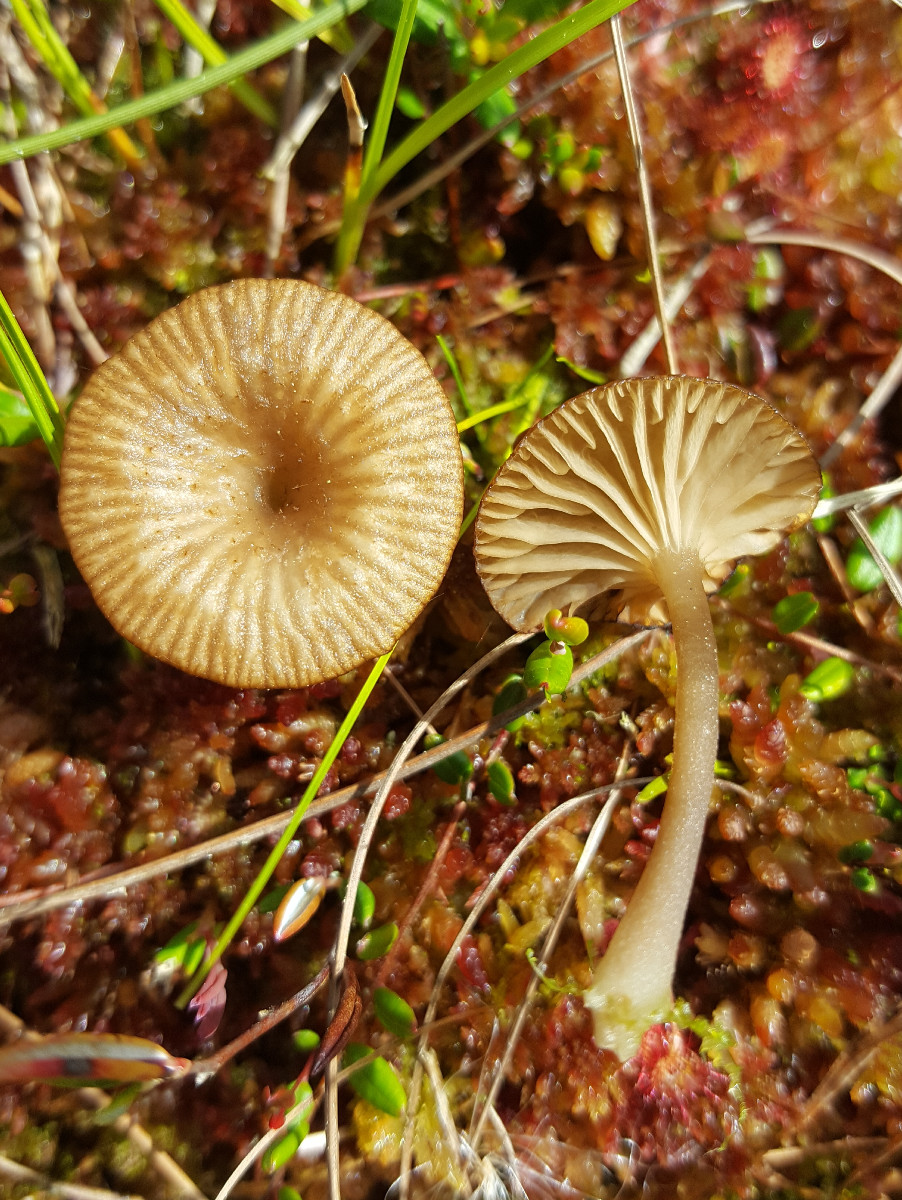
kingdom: Fungi
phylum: Basidiomycota
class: Agaricomycetes
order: Agaricales
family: Hygrophoraceae
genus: Arrhenia
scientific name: Arrhenia gerardiana
